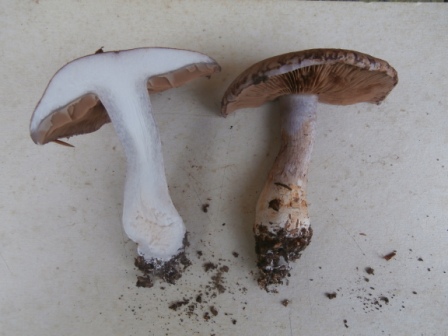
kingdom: Fungi
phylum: Basidiomycota
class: Agaricomycetes
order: Agaricales
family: Cortinariaceae
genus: Cortinarius
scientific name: Cortinarius largus
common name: violetrandet slørhat
